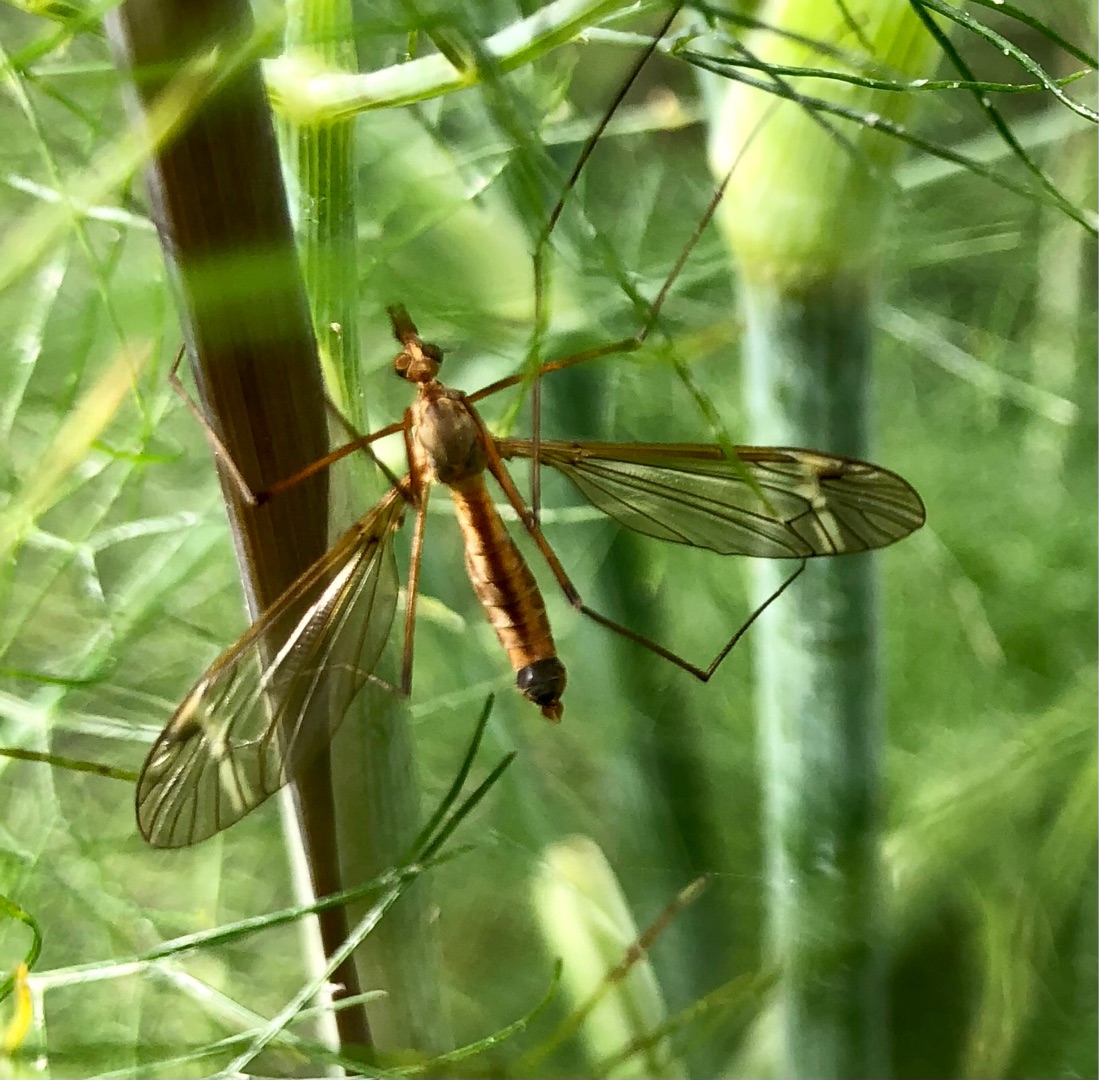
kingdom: Animalia
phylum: Arthropoda
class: Insecta
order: Diptera
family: Tipulidae
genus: Tipula
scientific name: Tipula fascipennis
